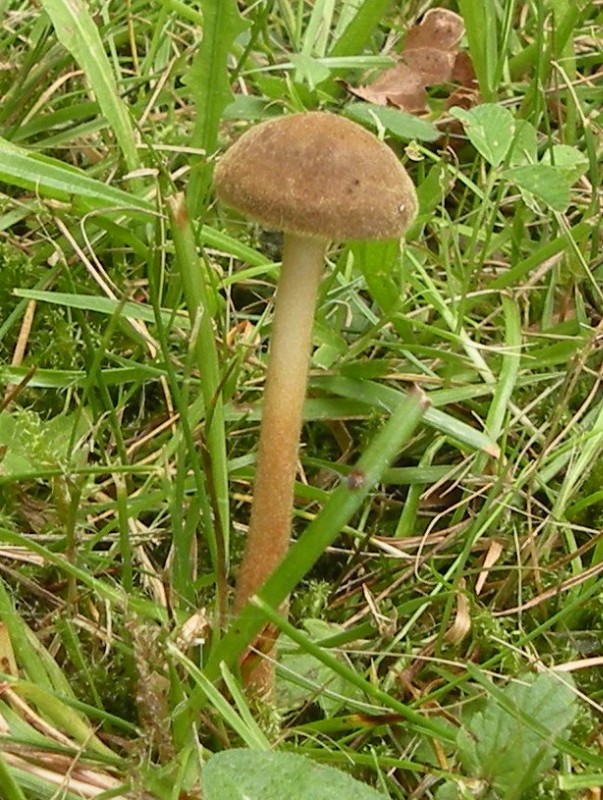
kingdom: Fungi
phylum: Basidiomycota
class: Agaricomycetes
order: Agaricales
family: Physalacriaceae
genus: Xerula
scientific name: Xerula pudens
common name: filtet pælerodshat
